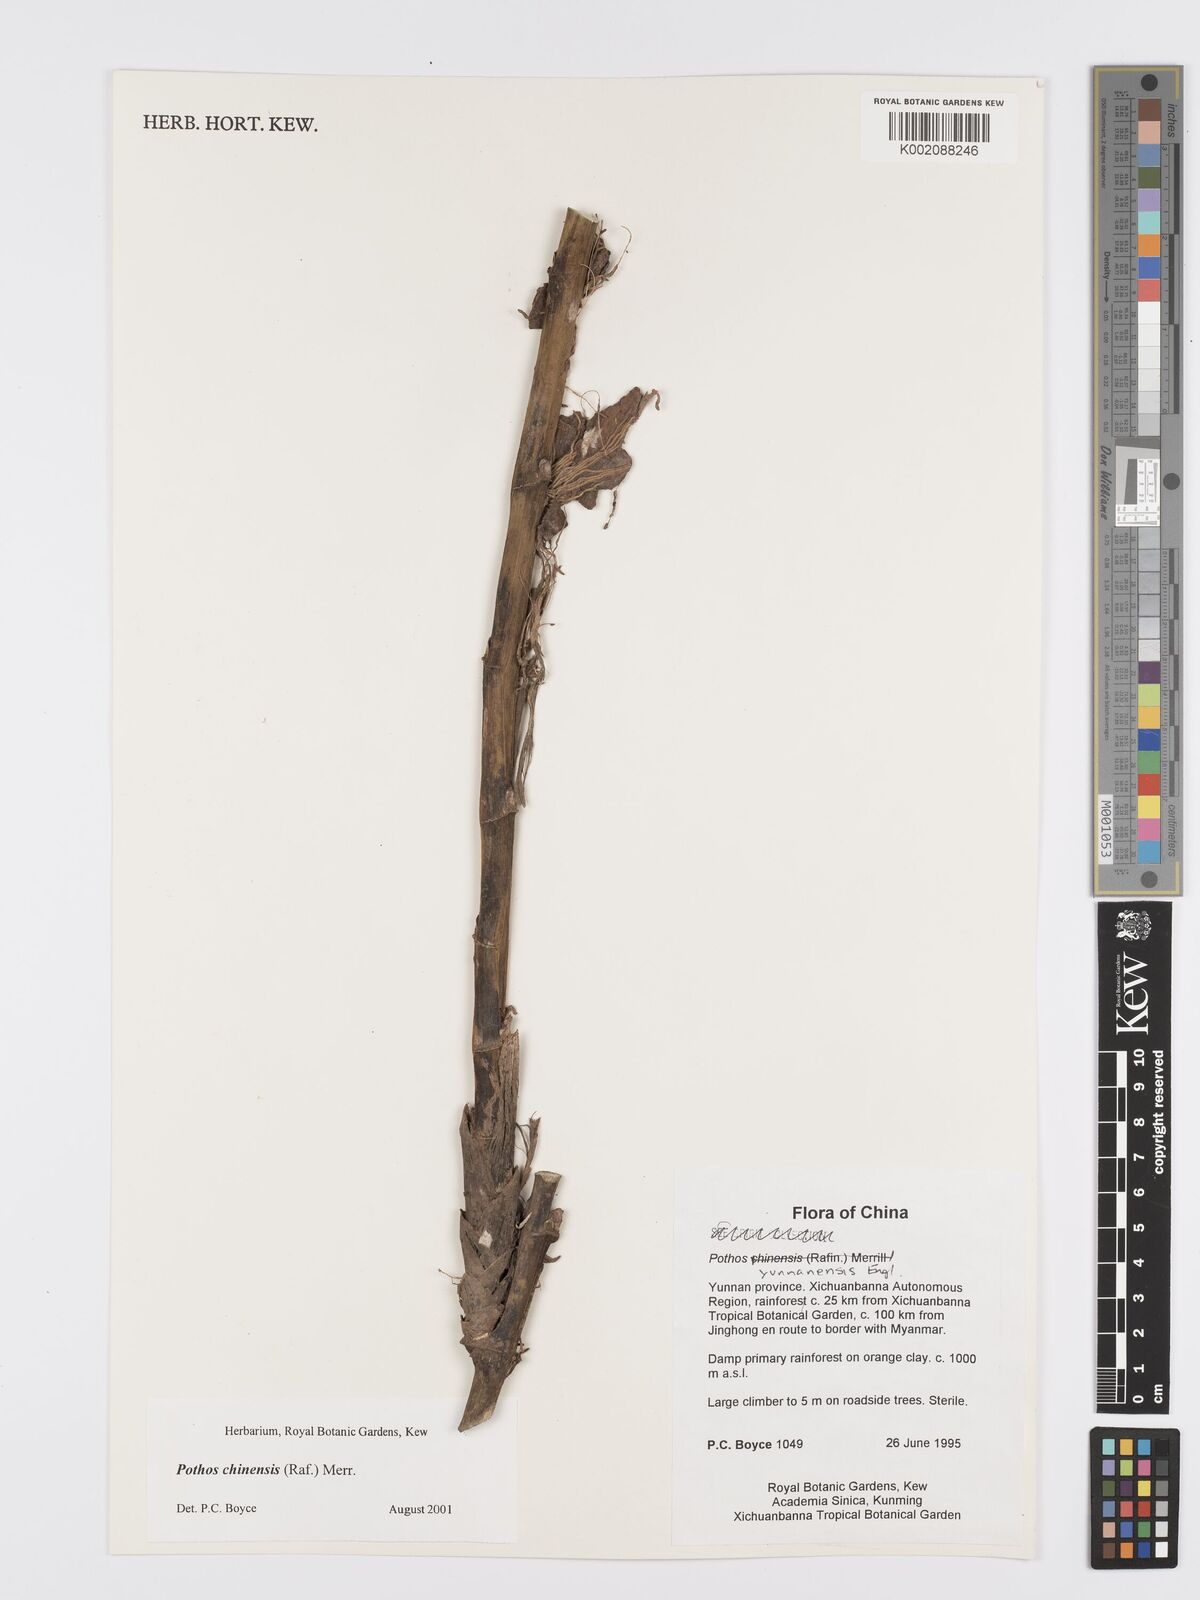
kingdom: Plantae
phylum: Tracheophyta
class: Liliopsida
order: Alismatales
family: Araceae
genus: Pothos
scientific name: Pothos chinensis
